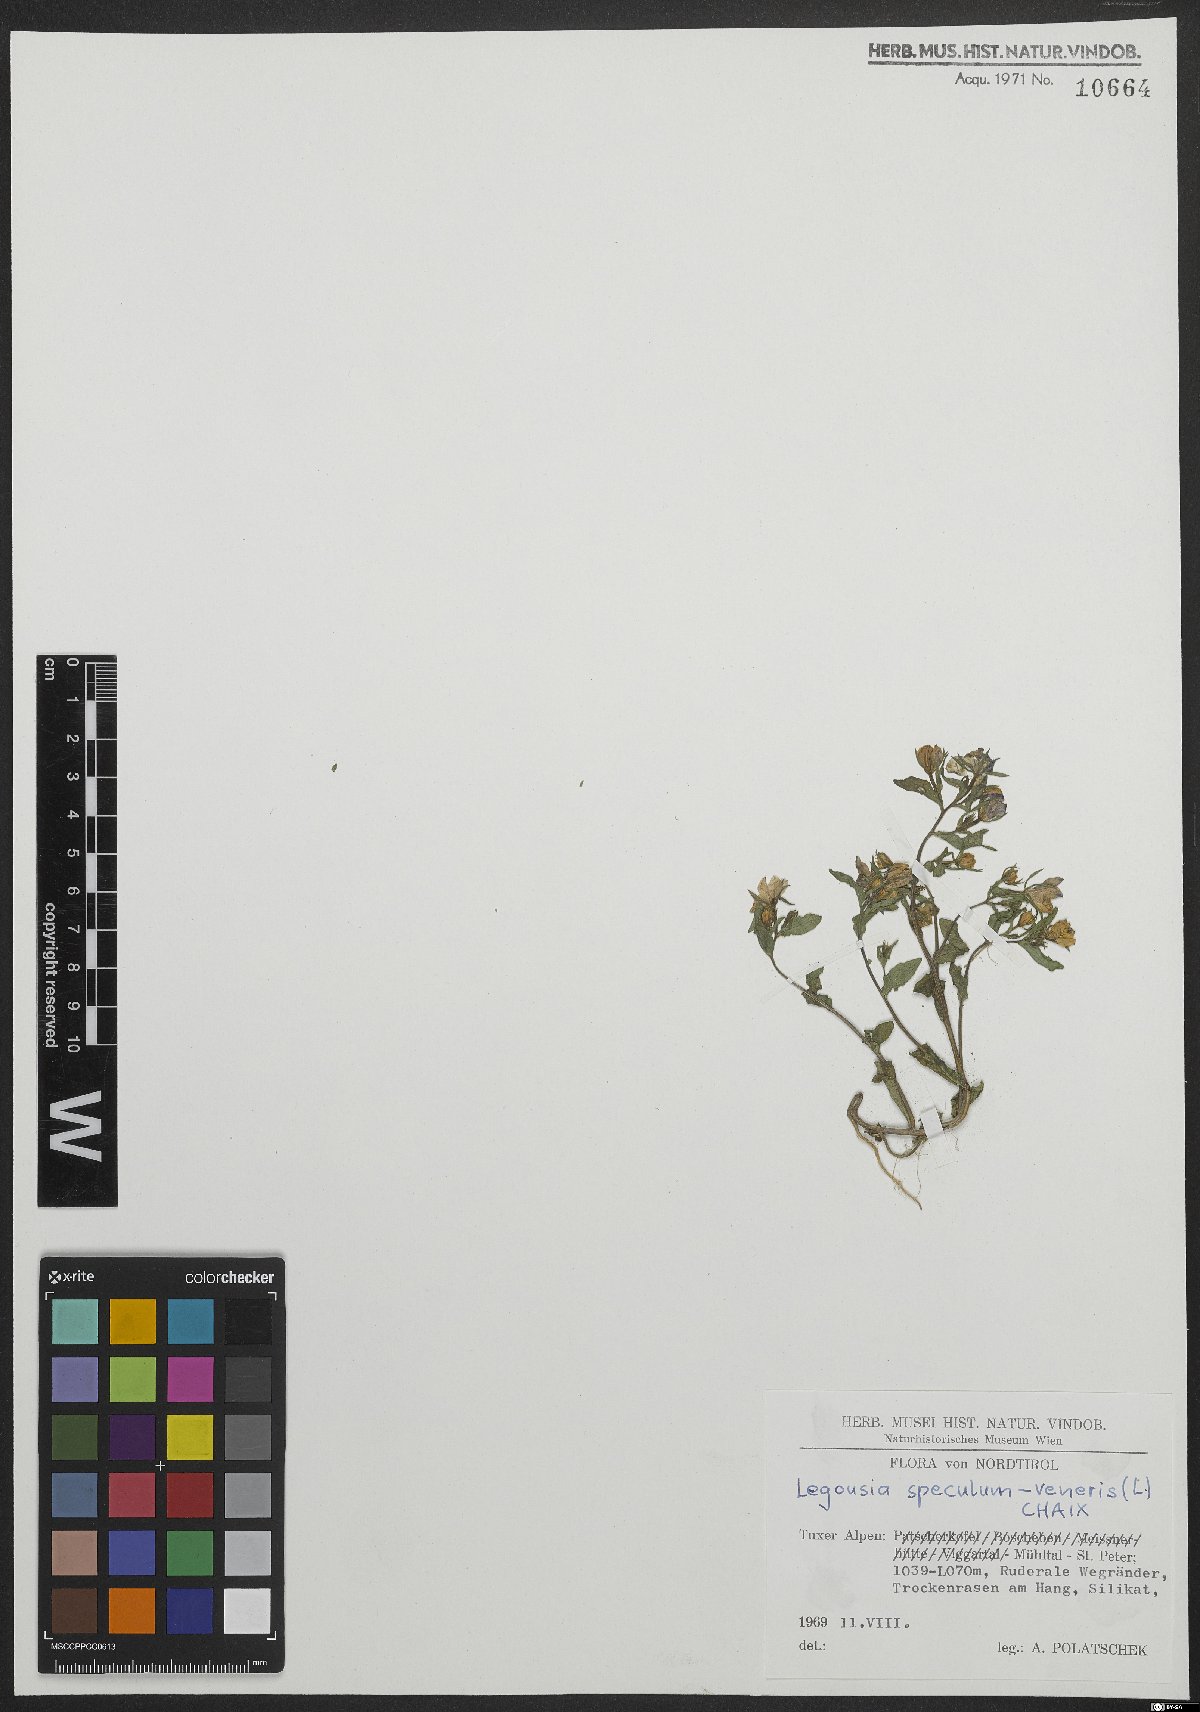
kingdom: Plantae
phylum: Tracheophyta
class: Magnoliopsida
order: Asterales
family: Campanulaceae
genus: Legousia
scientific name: Legousia speculum-veneris
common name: Large venus's-looking-glass
